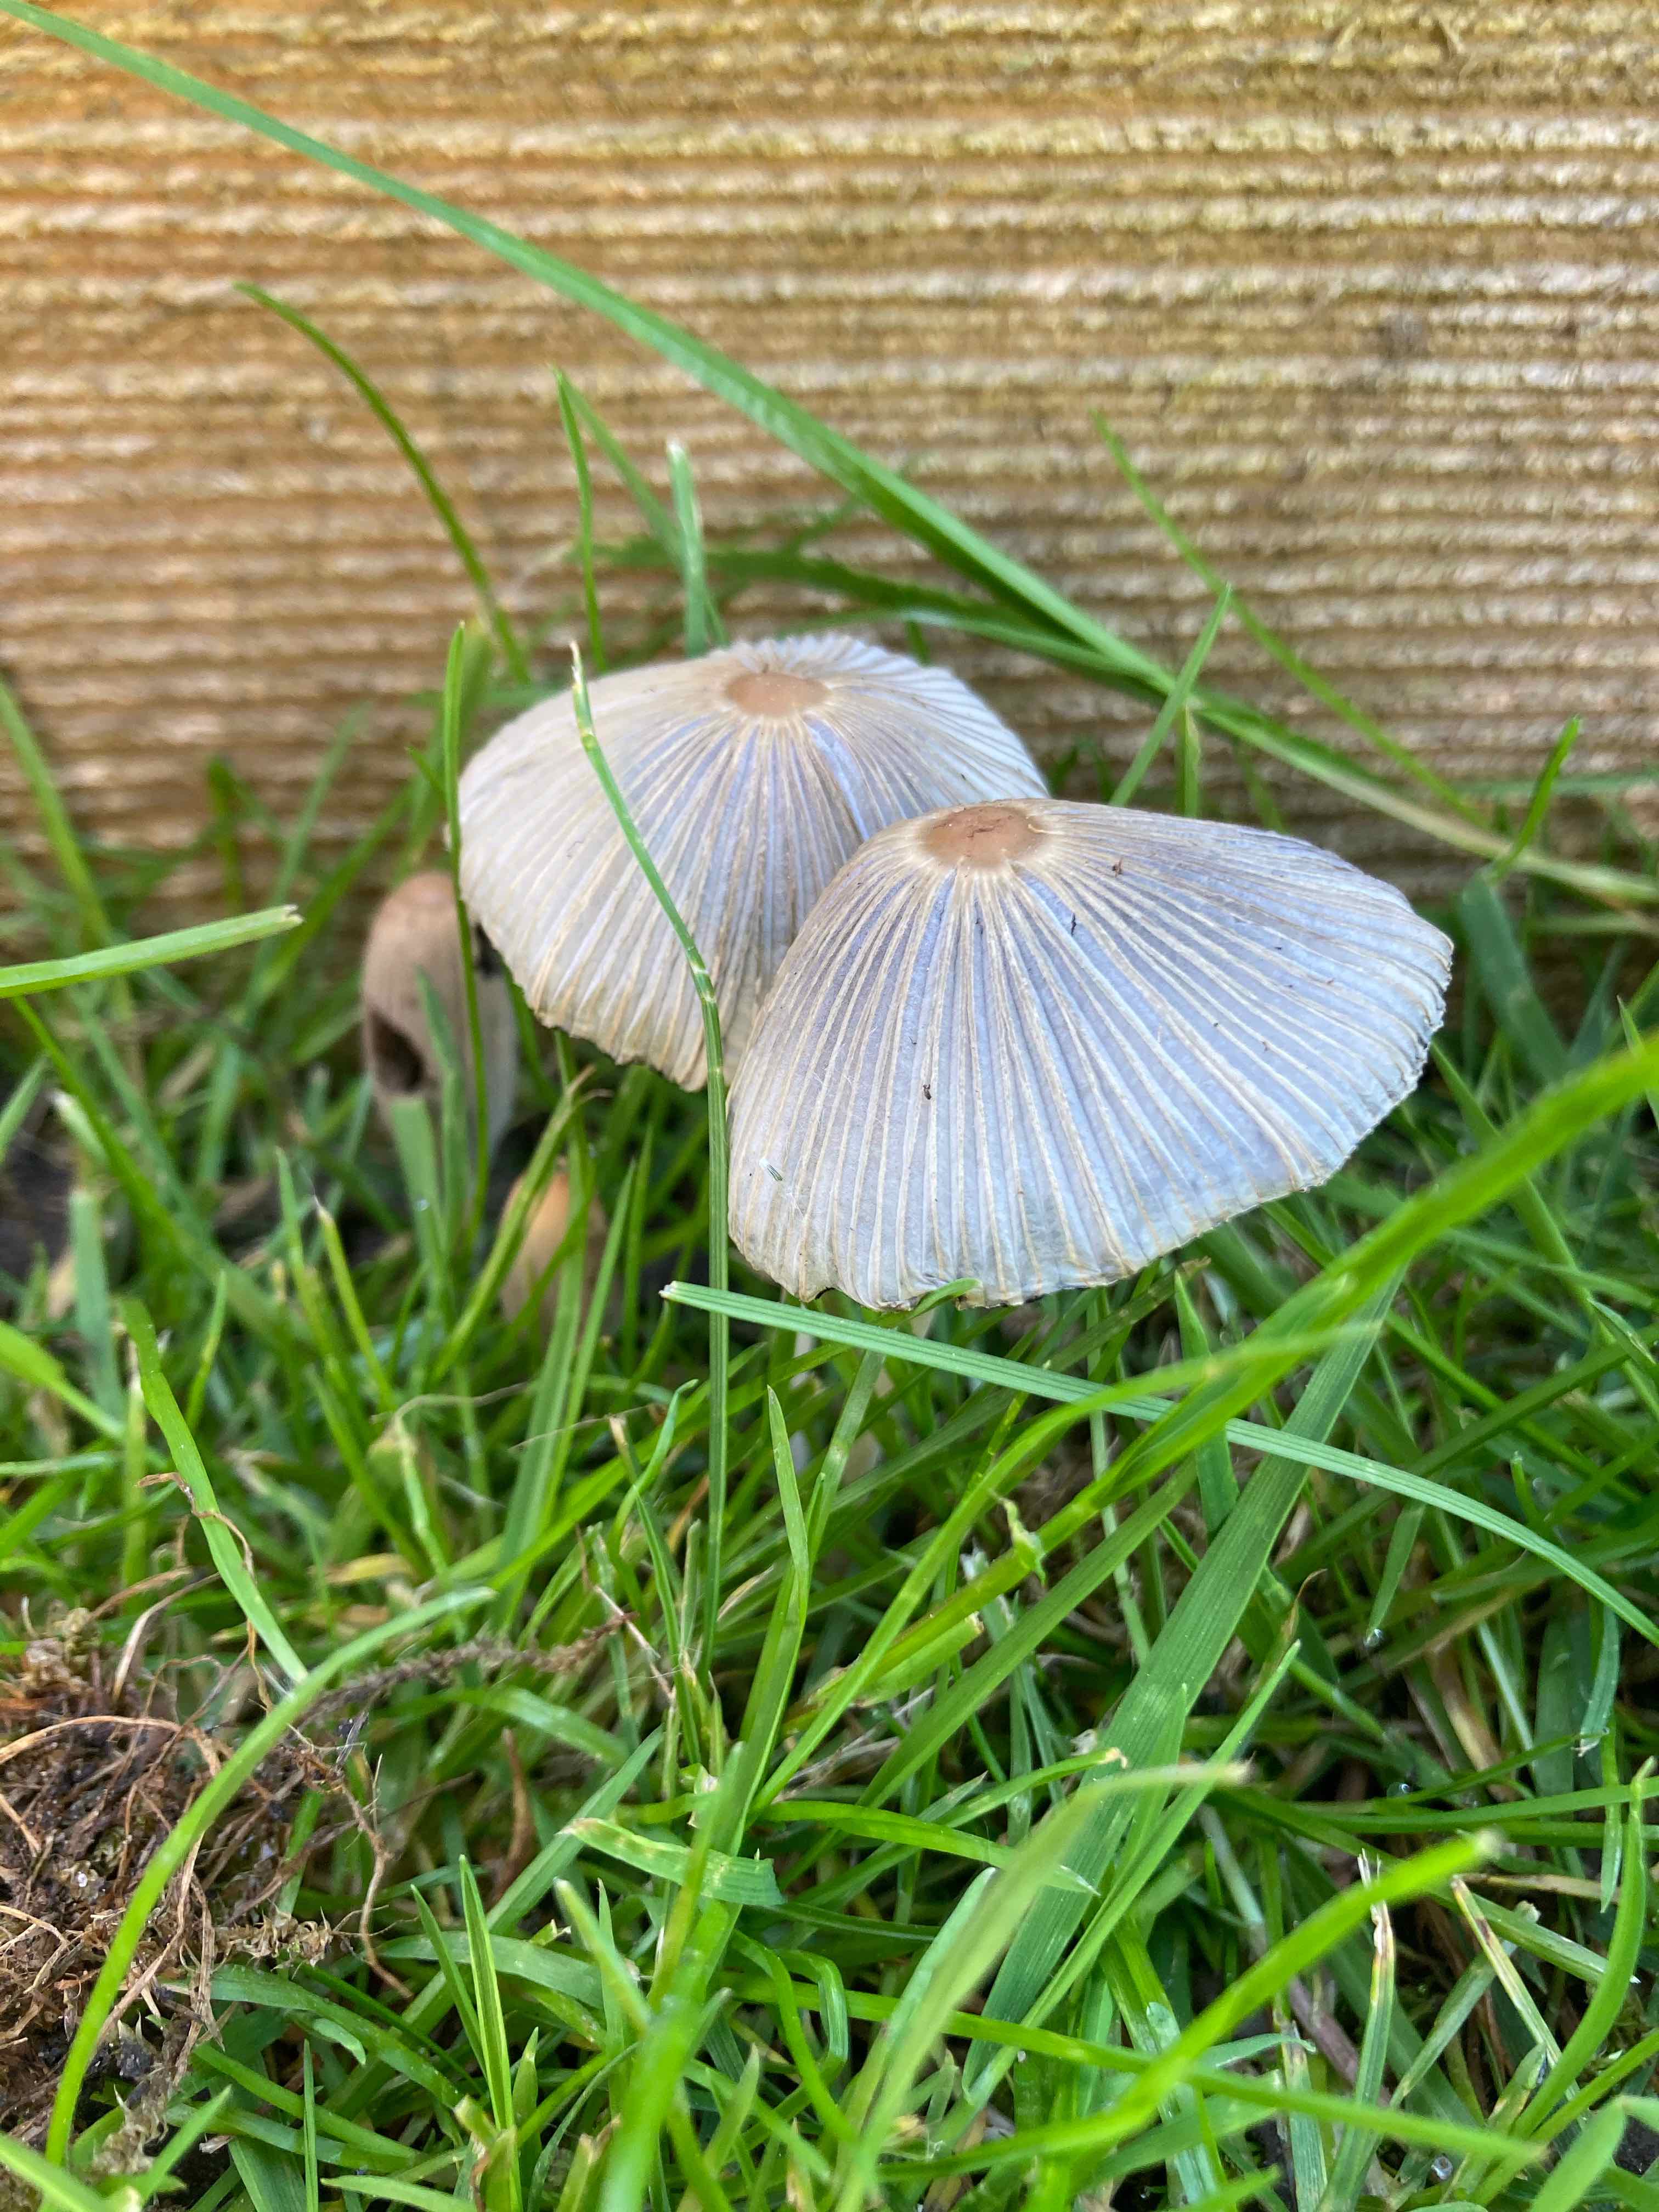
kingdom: Fungi
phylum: Basidiomycota
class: Agaricomycetes
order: Agaricales
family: Psathyrellaceae
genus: Parasola
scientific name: Parasola
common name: hjulhat
